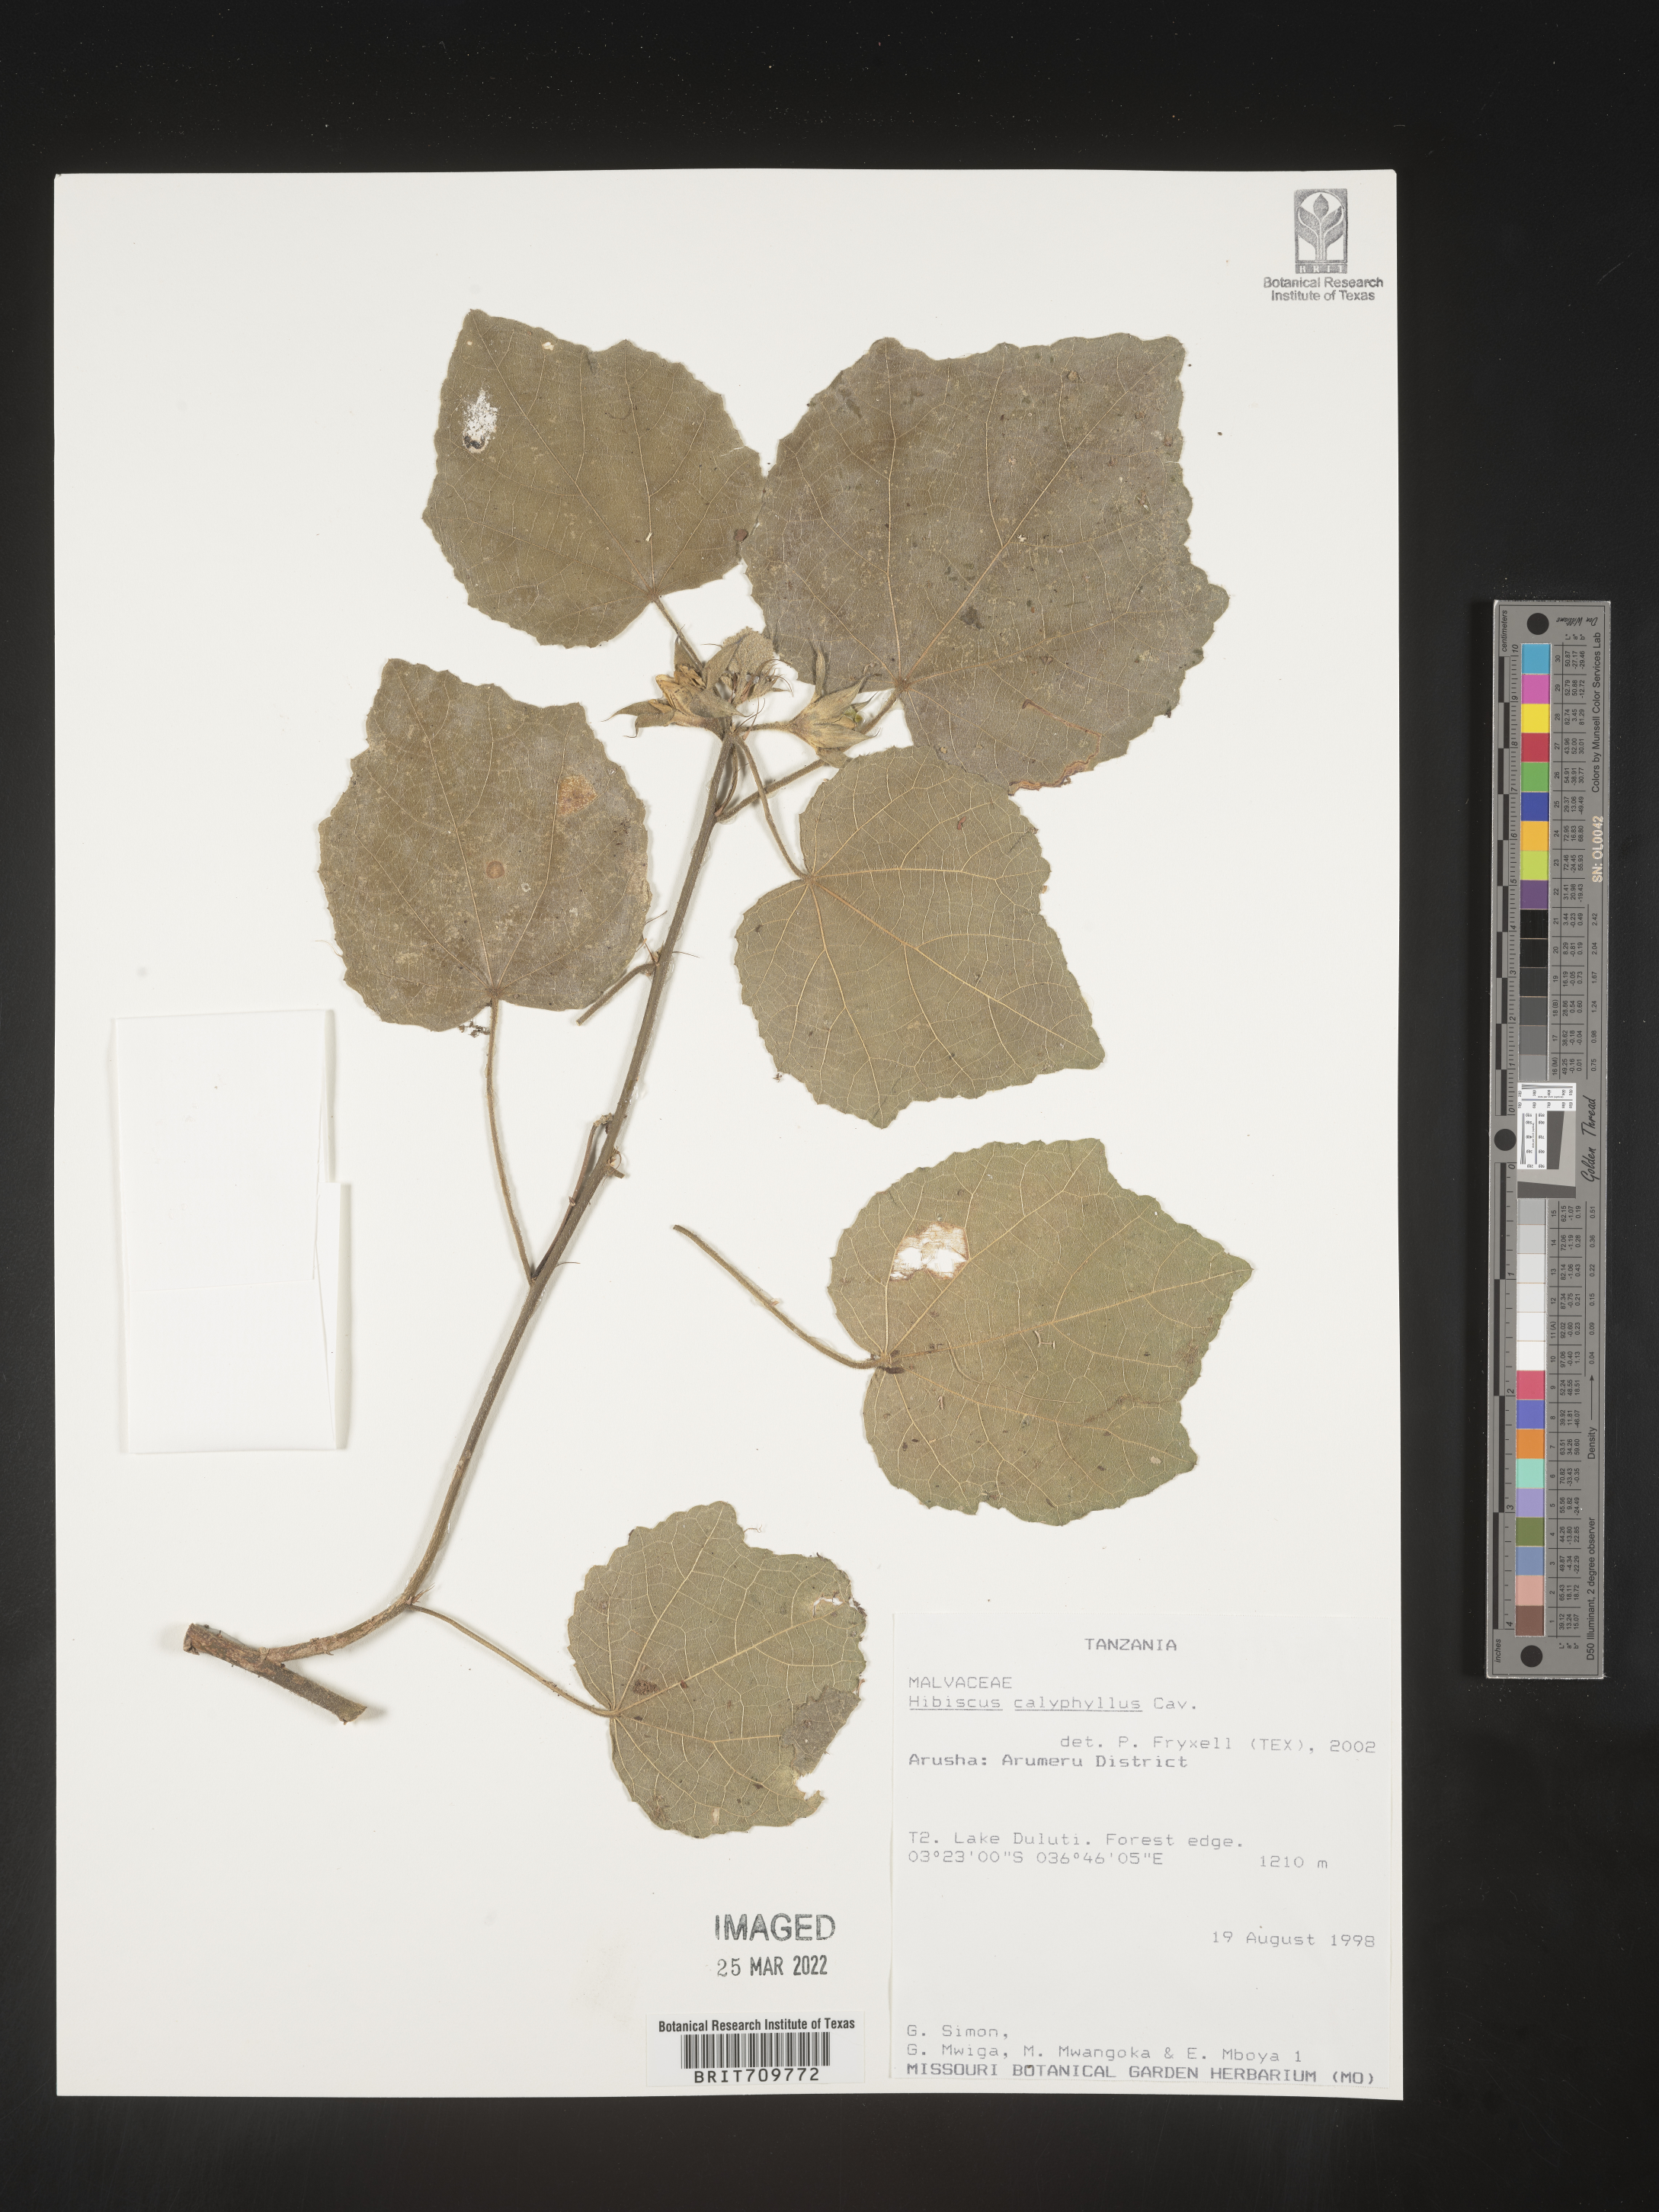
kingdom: Plantae
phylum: Tracheophyta
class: Magnoliopsida
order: Malvales
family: Malvaceae
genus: Hibiscus
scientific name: Hibiscus
